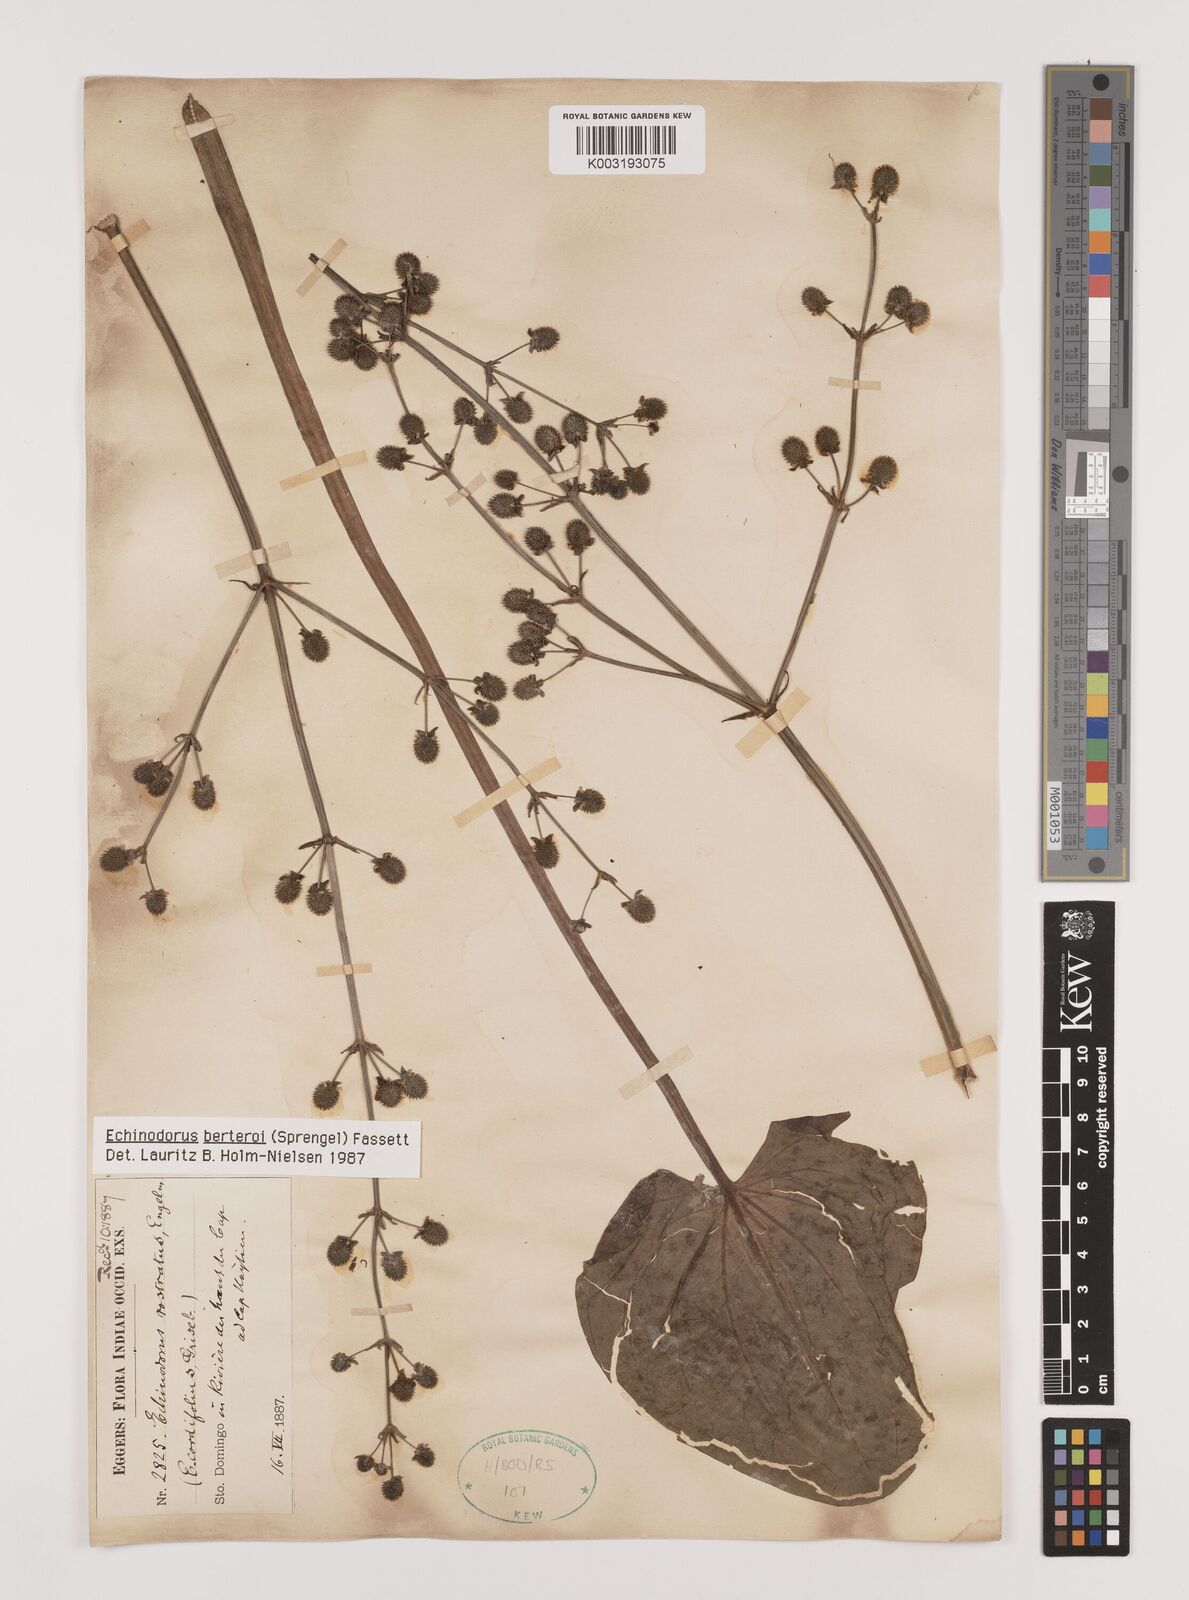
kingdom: Plantae
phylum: Tracheophyta
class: Liliopsida
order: Alismatales
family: Alismataceae
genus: Echinodorus
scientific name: Echinodorus berteroi
